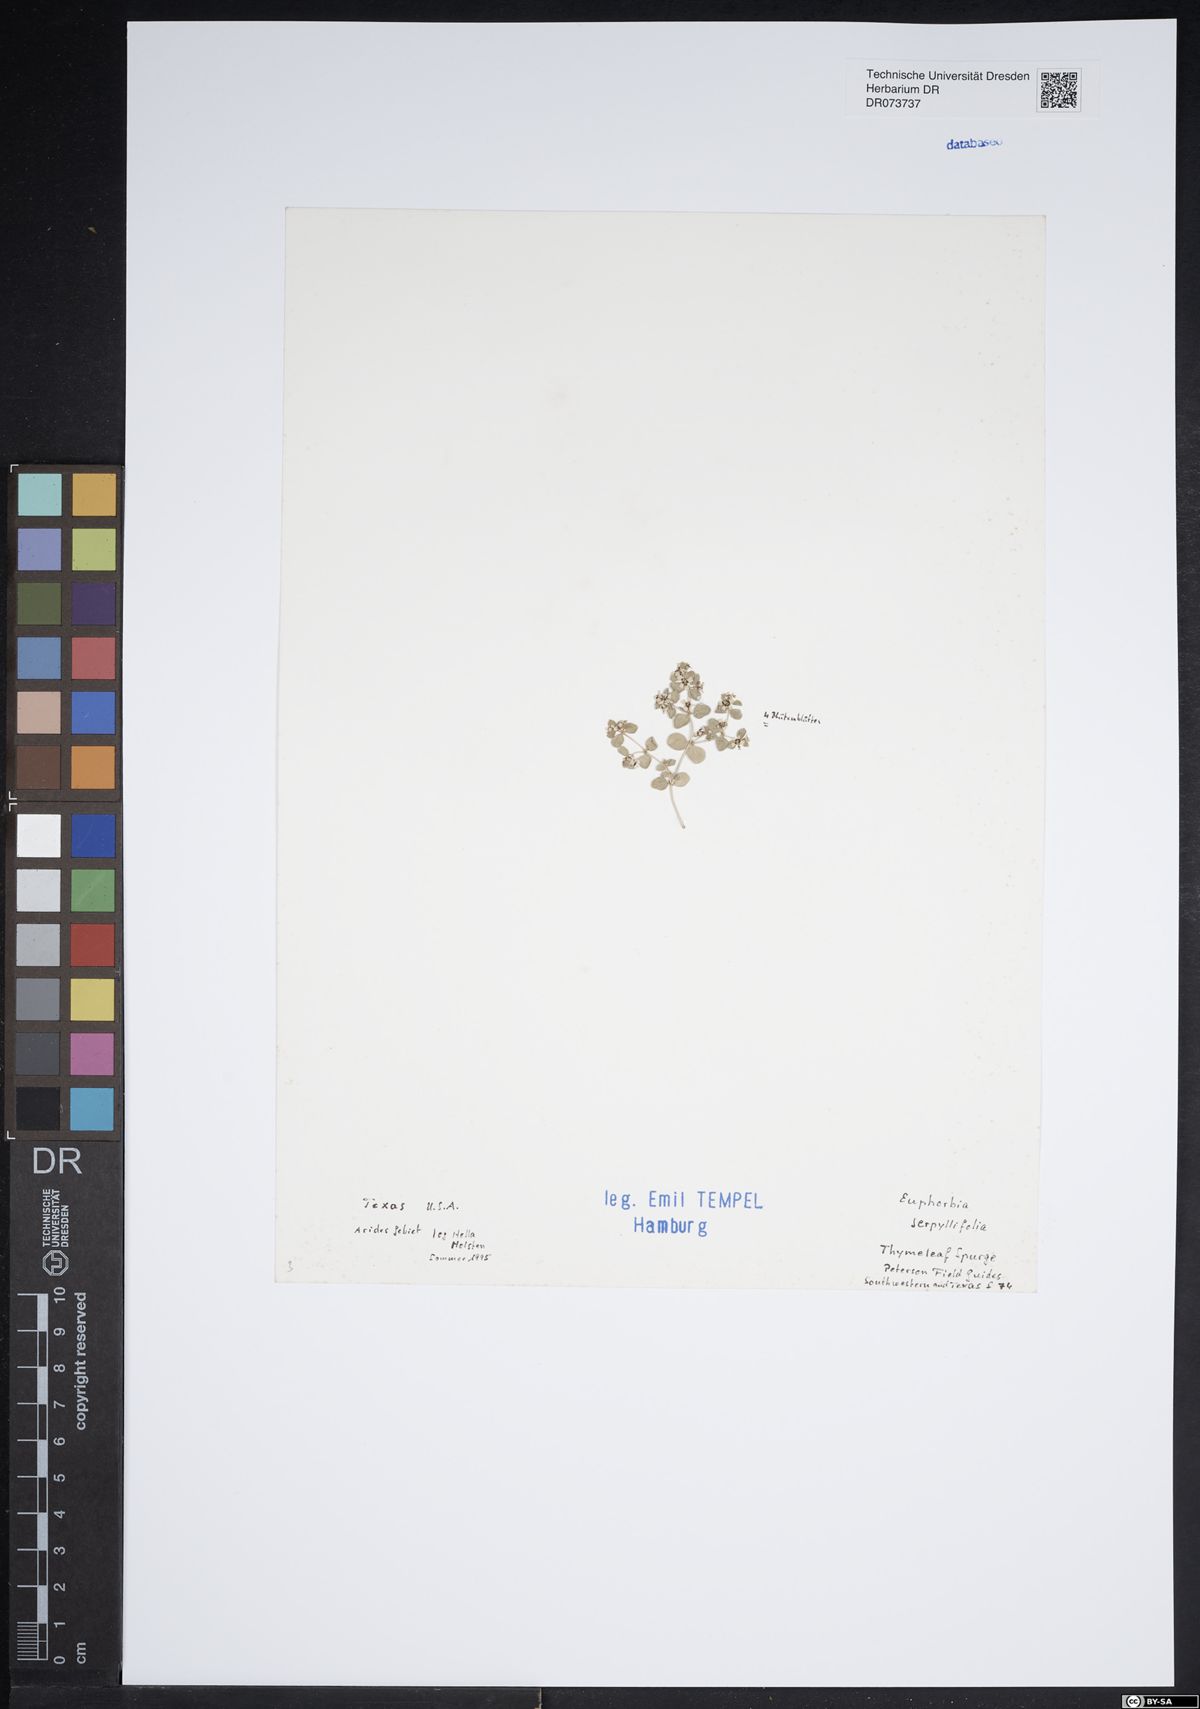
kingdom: Plantae
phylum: Tracheophyta
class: Magnoliopsida
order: Malpighiales
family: Euphorbiaceae
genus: Euphorbia
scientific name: Euphorbia serpillifolia
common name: Thyme-leaf spurge
